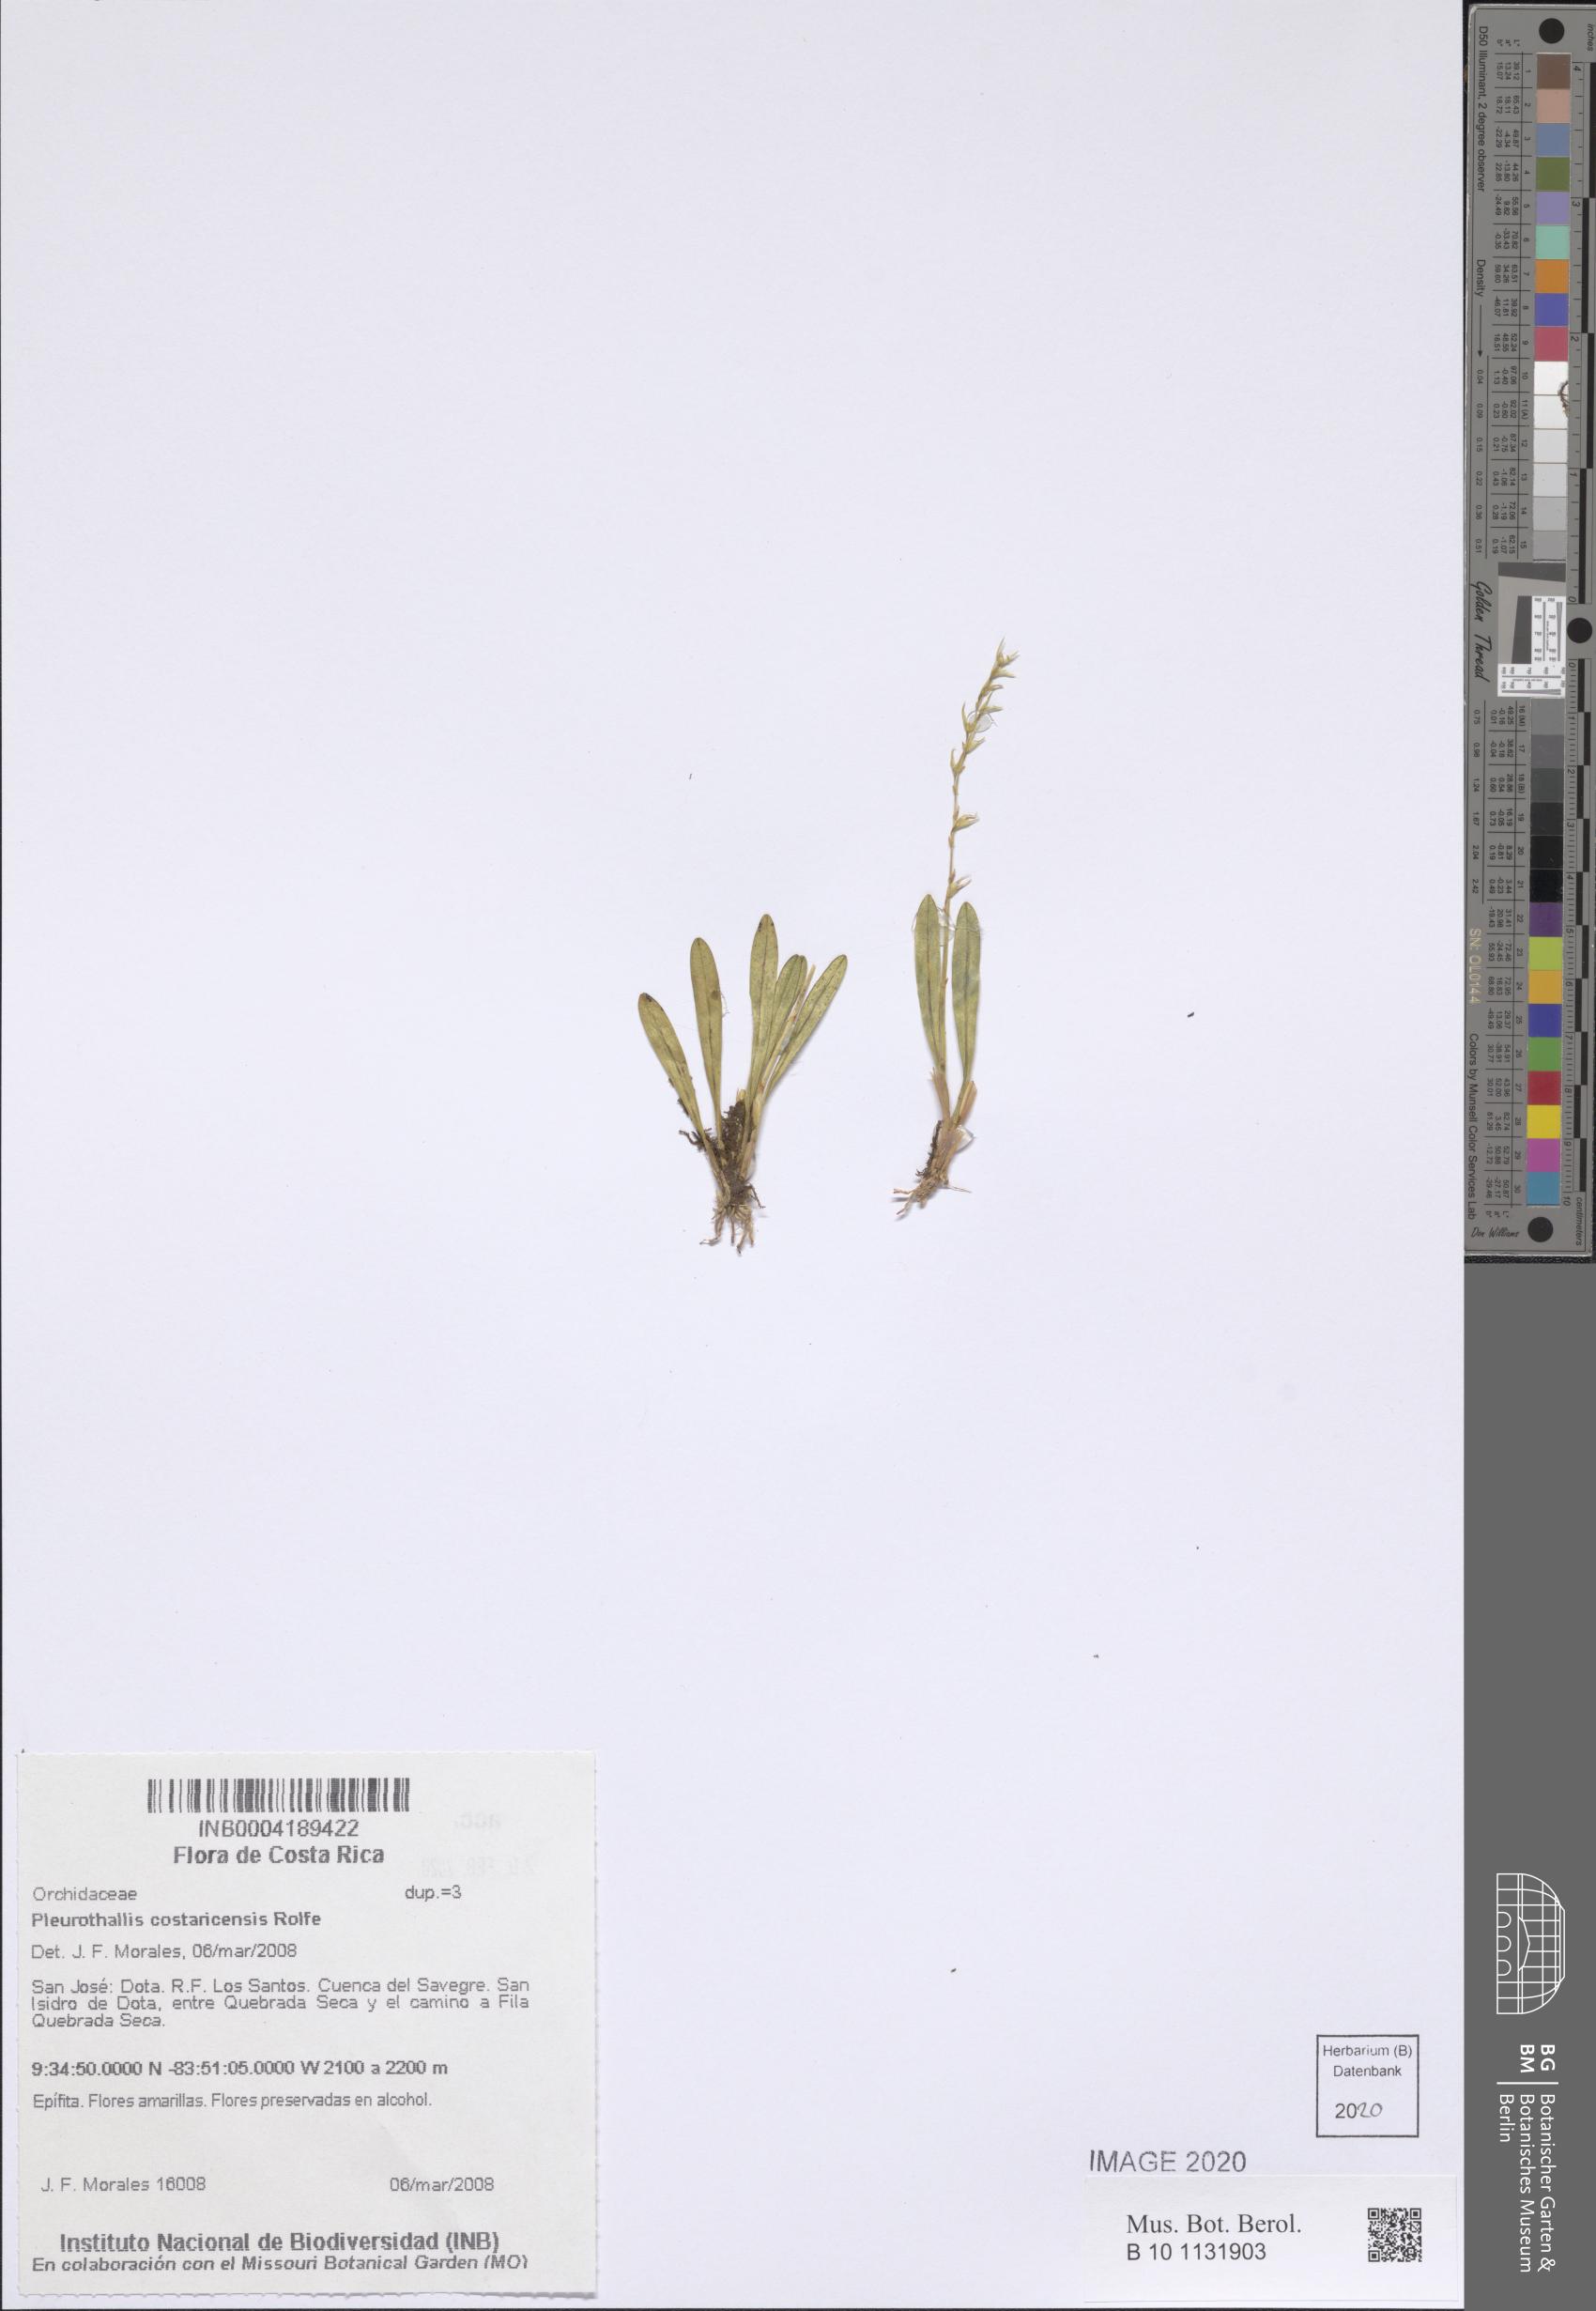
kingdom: Plantae
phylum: Tracheophyta
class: Liliopsida
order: Asparagales
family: Orchidaceae
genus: Specklinia
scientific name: Specklinia costaricensis
